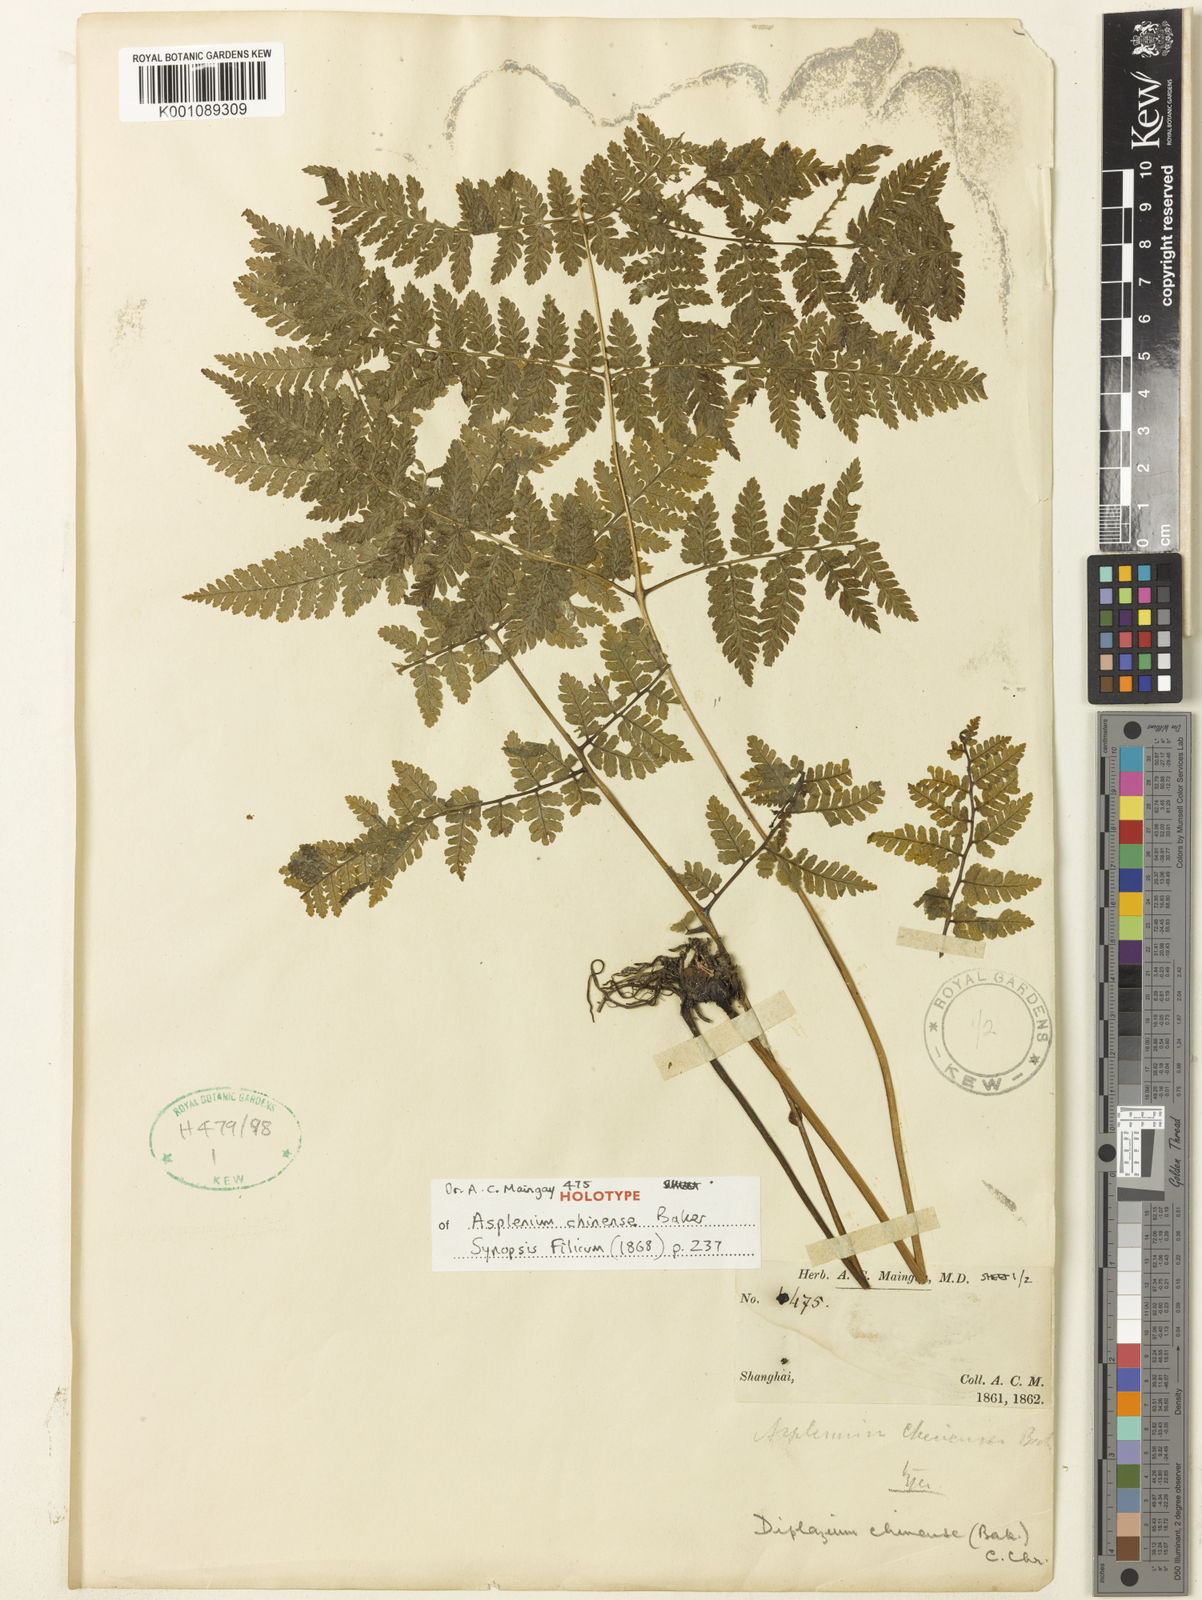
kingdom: Plantae
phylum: Tracheophyta
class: Polypodiopsida
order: Polypodiales
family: Athyriaceae
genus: Diplazium
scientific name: Diplazium chinense
